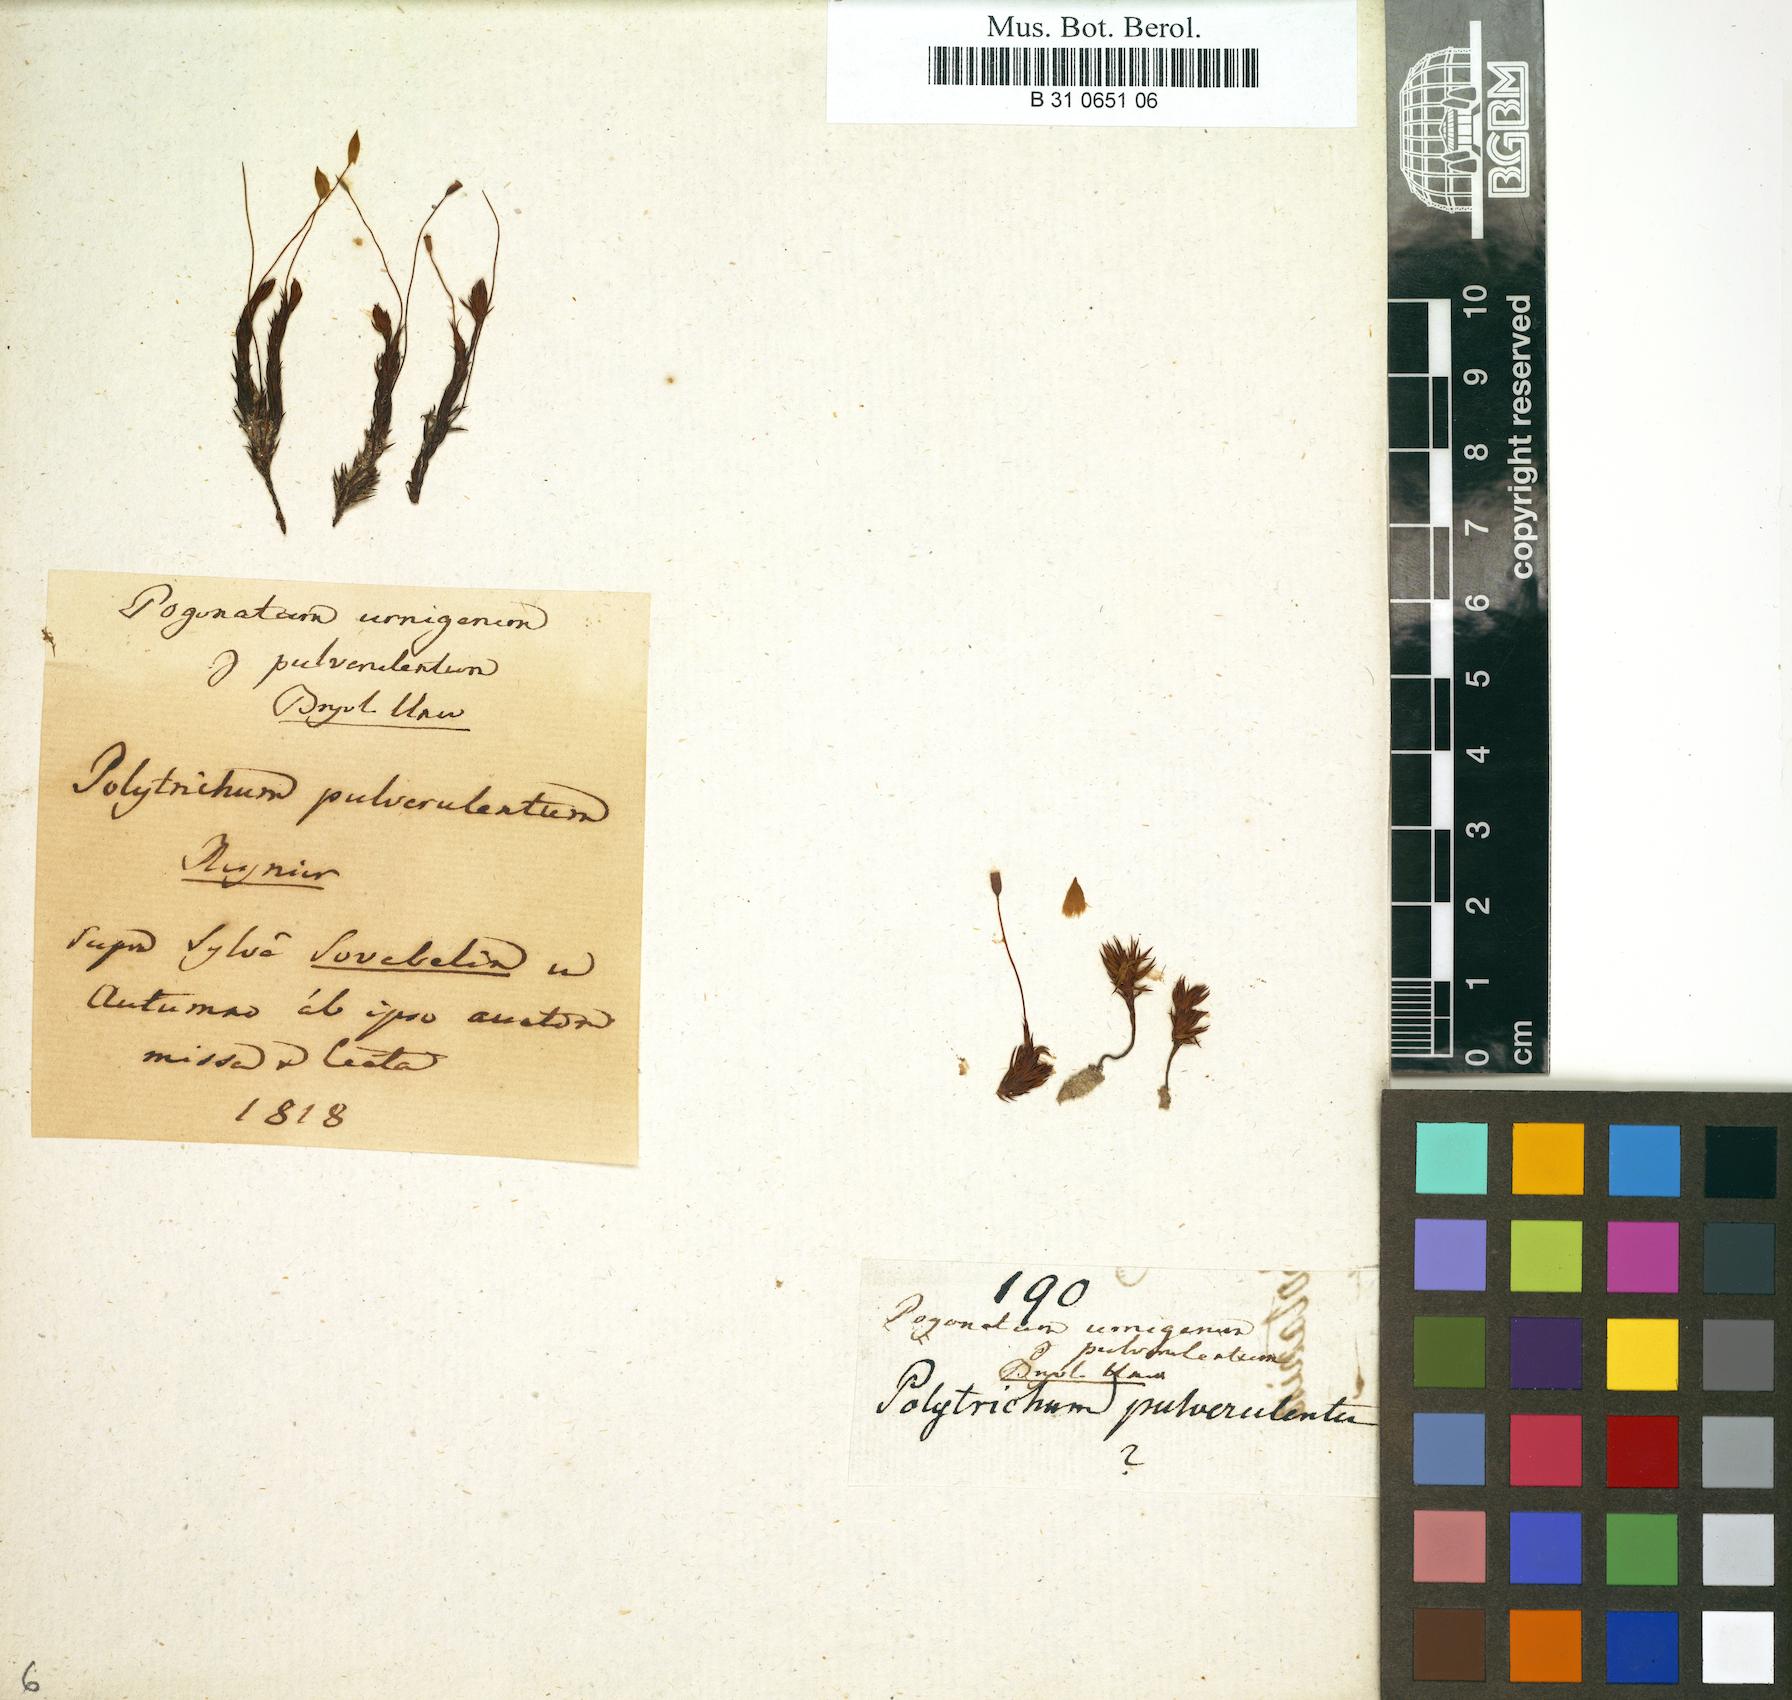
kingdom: Plantae
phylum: Bryophyta
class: Polytrichopsida
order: Polytrichales
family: Polytrichaceae
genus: Pogonatum
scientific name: Pogonatum
